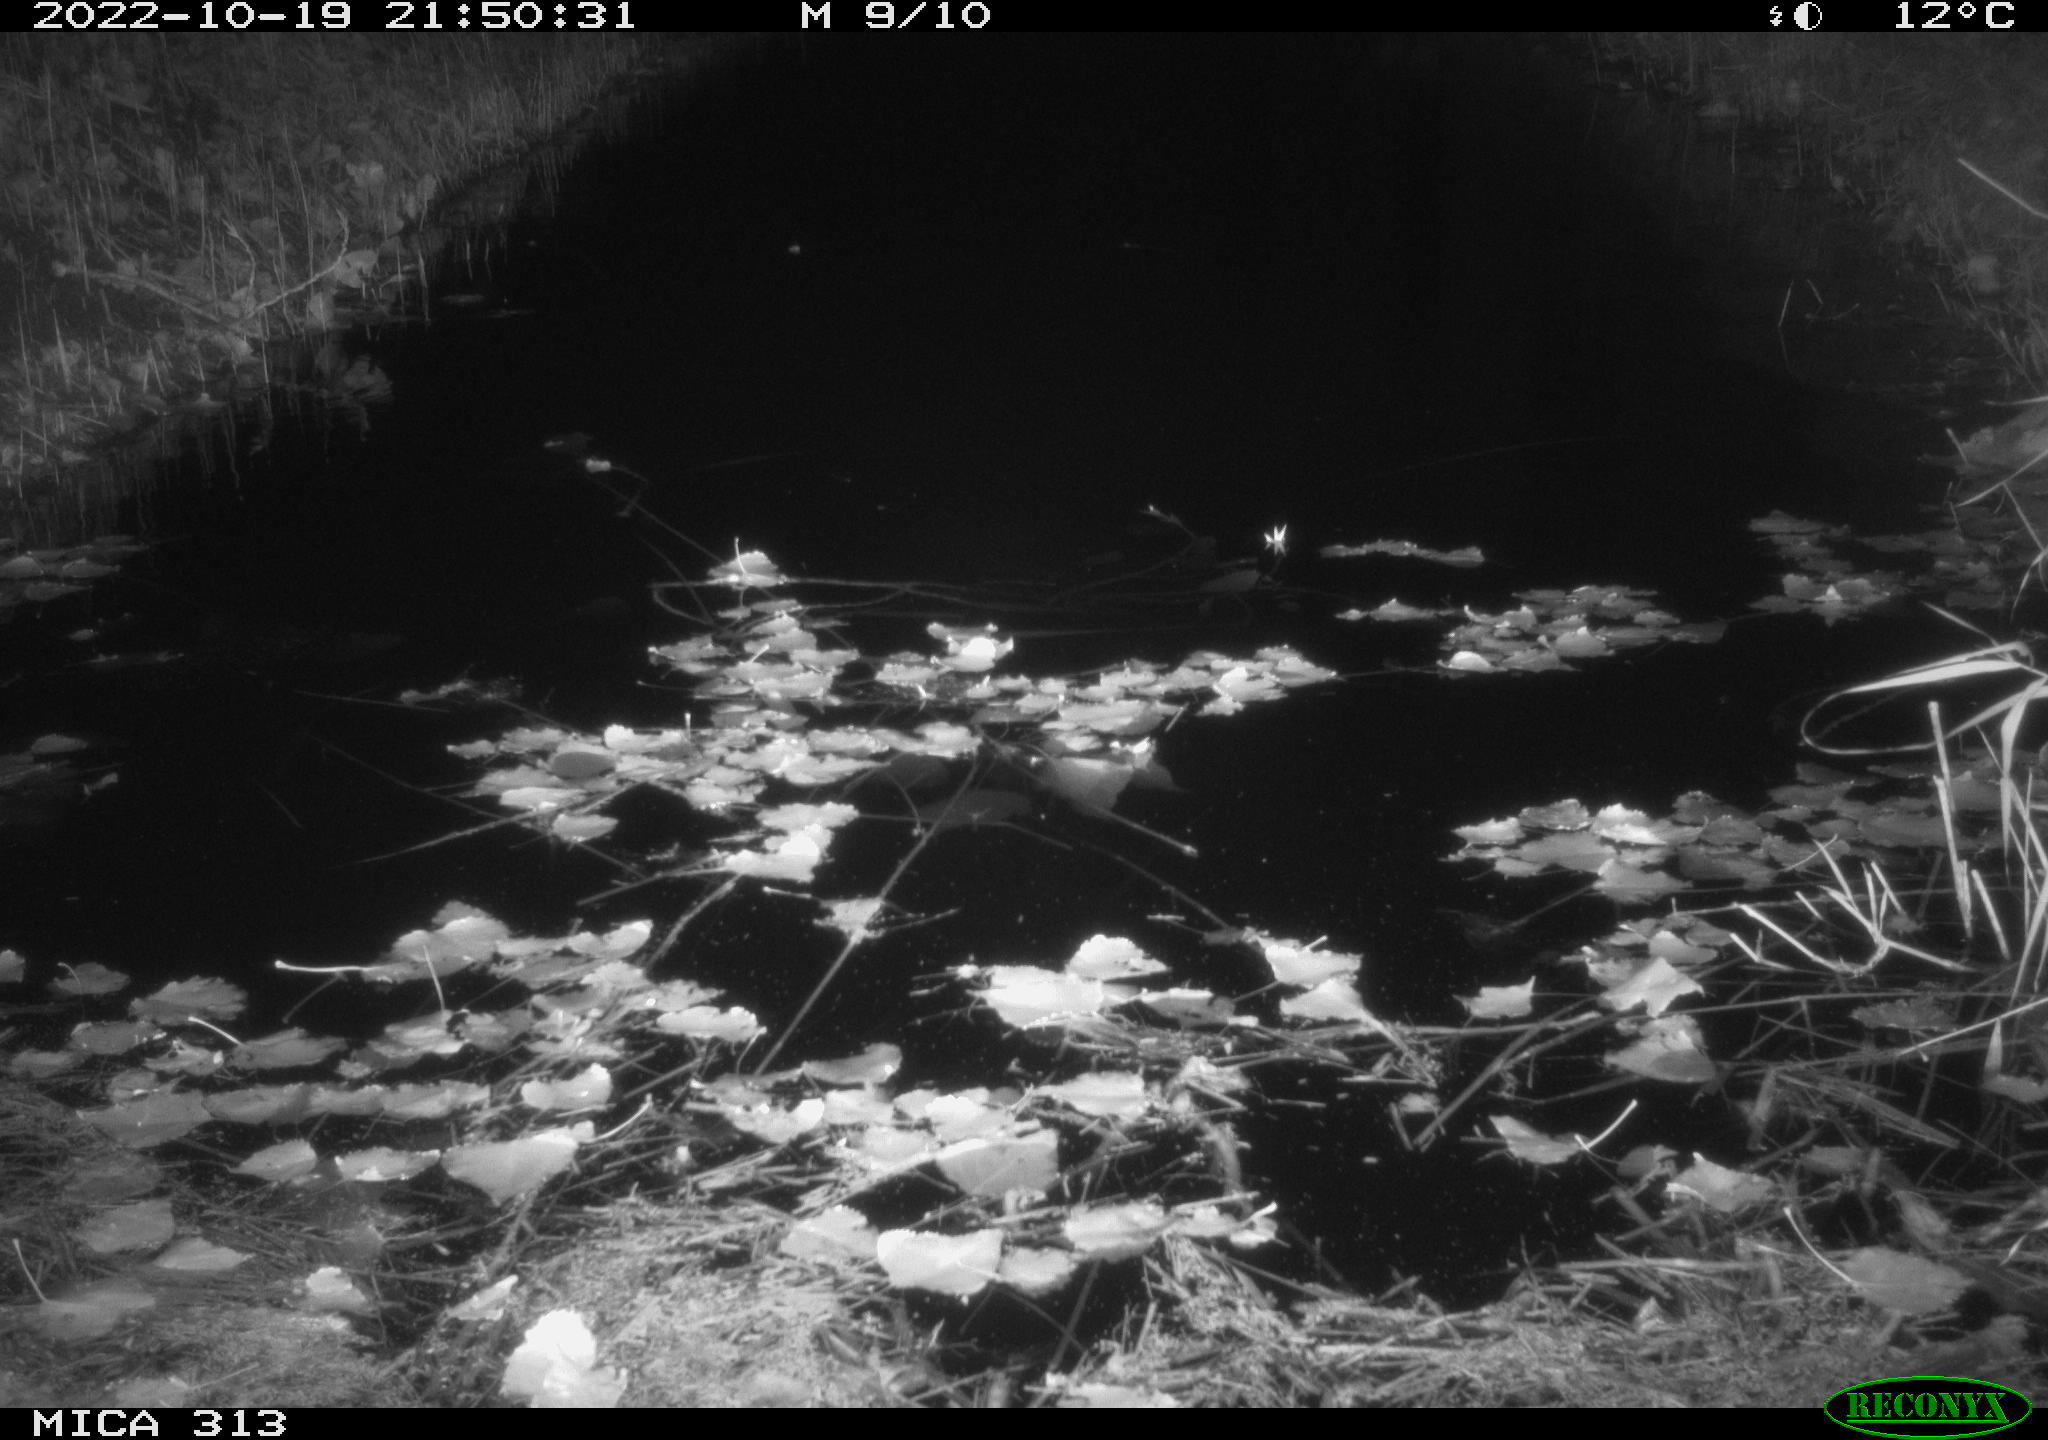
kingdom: Animalia
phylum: Chordata
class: Mammalia
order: Rodentia
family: Muridae
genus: Rattus
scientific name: Rattus norvegicus
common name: Brown rat
